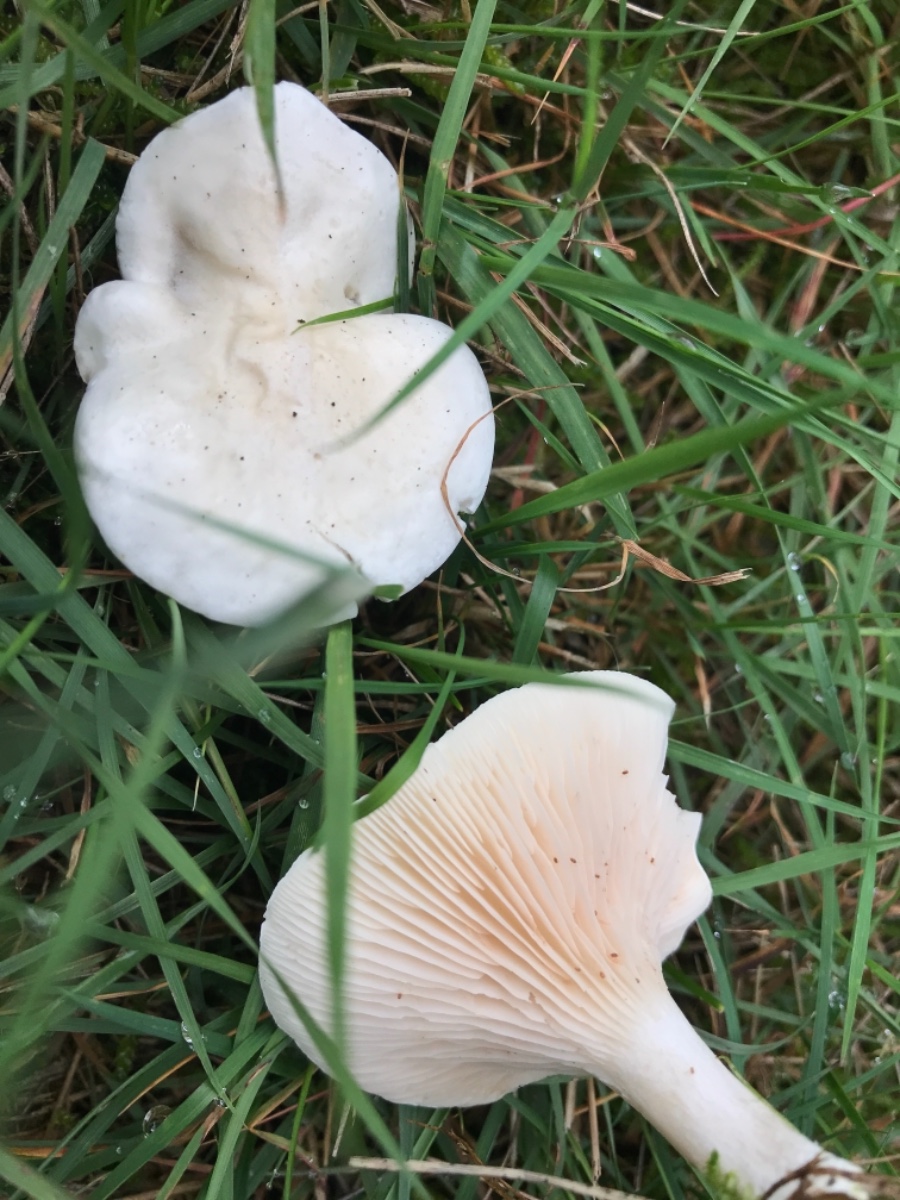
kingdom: Fungi
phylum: Basidiomycota
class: Agaricomycetes
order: Agaricales
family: Entolomataceae
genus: Clitopilus
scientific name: Clitopilus prunulus
